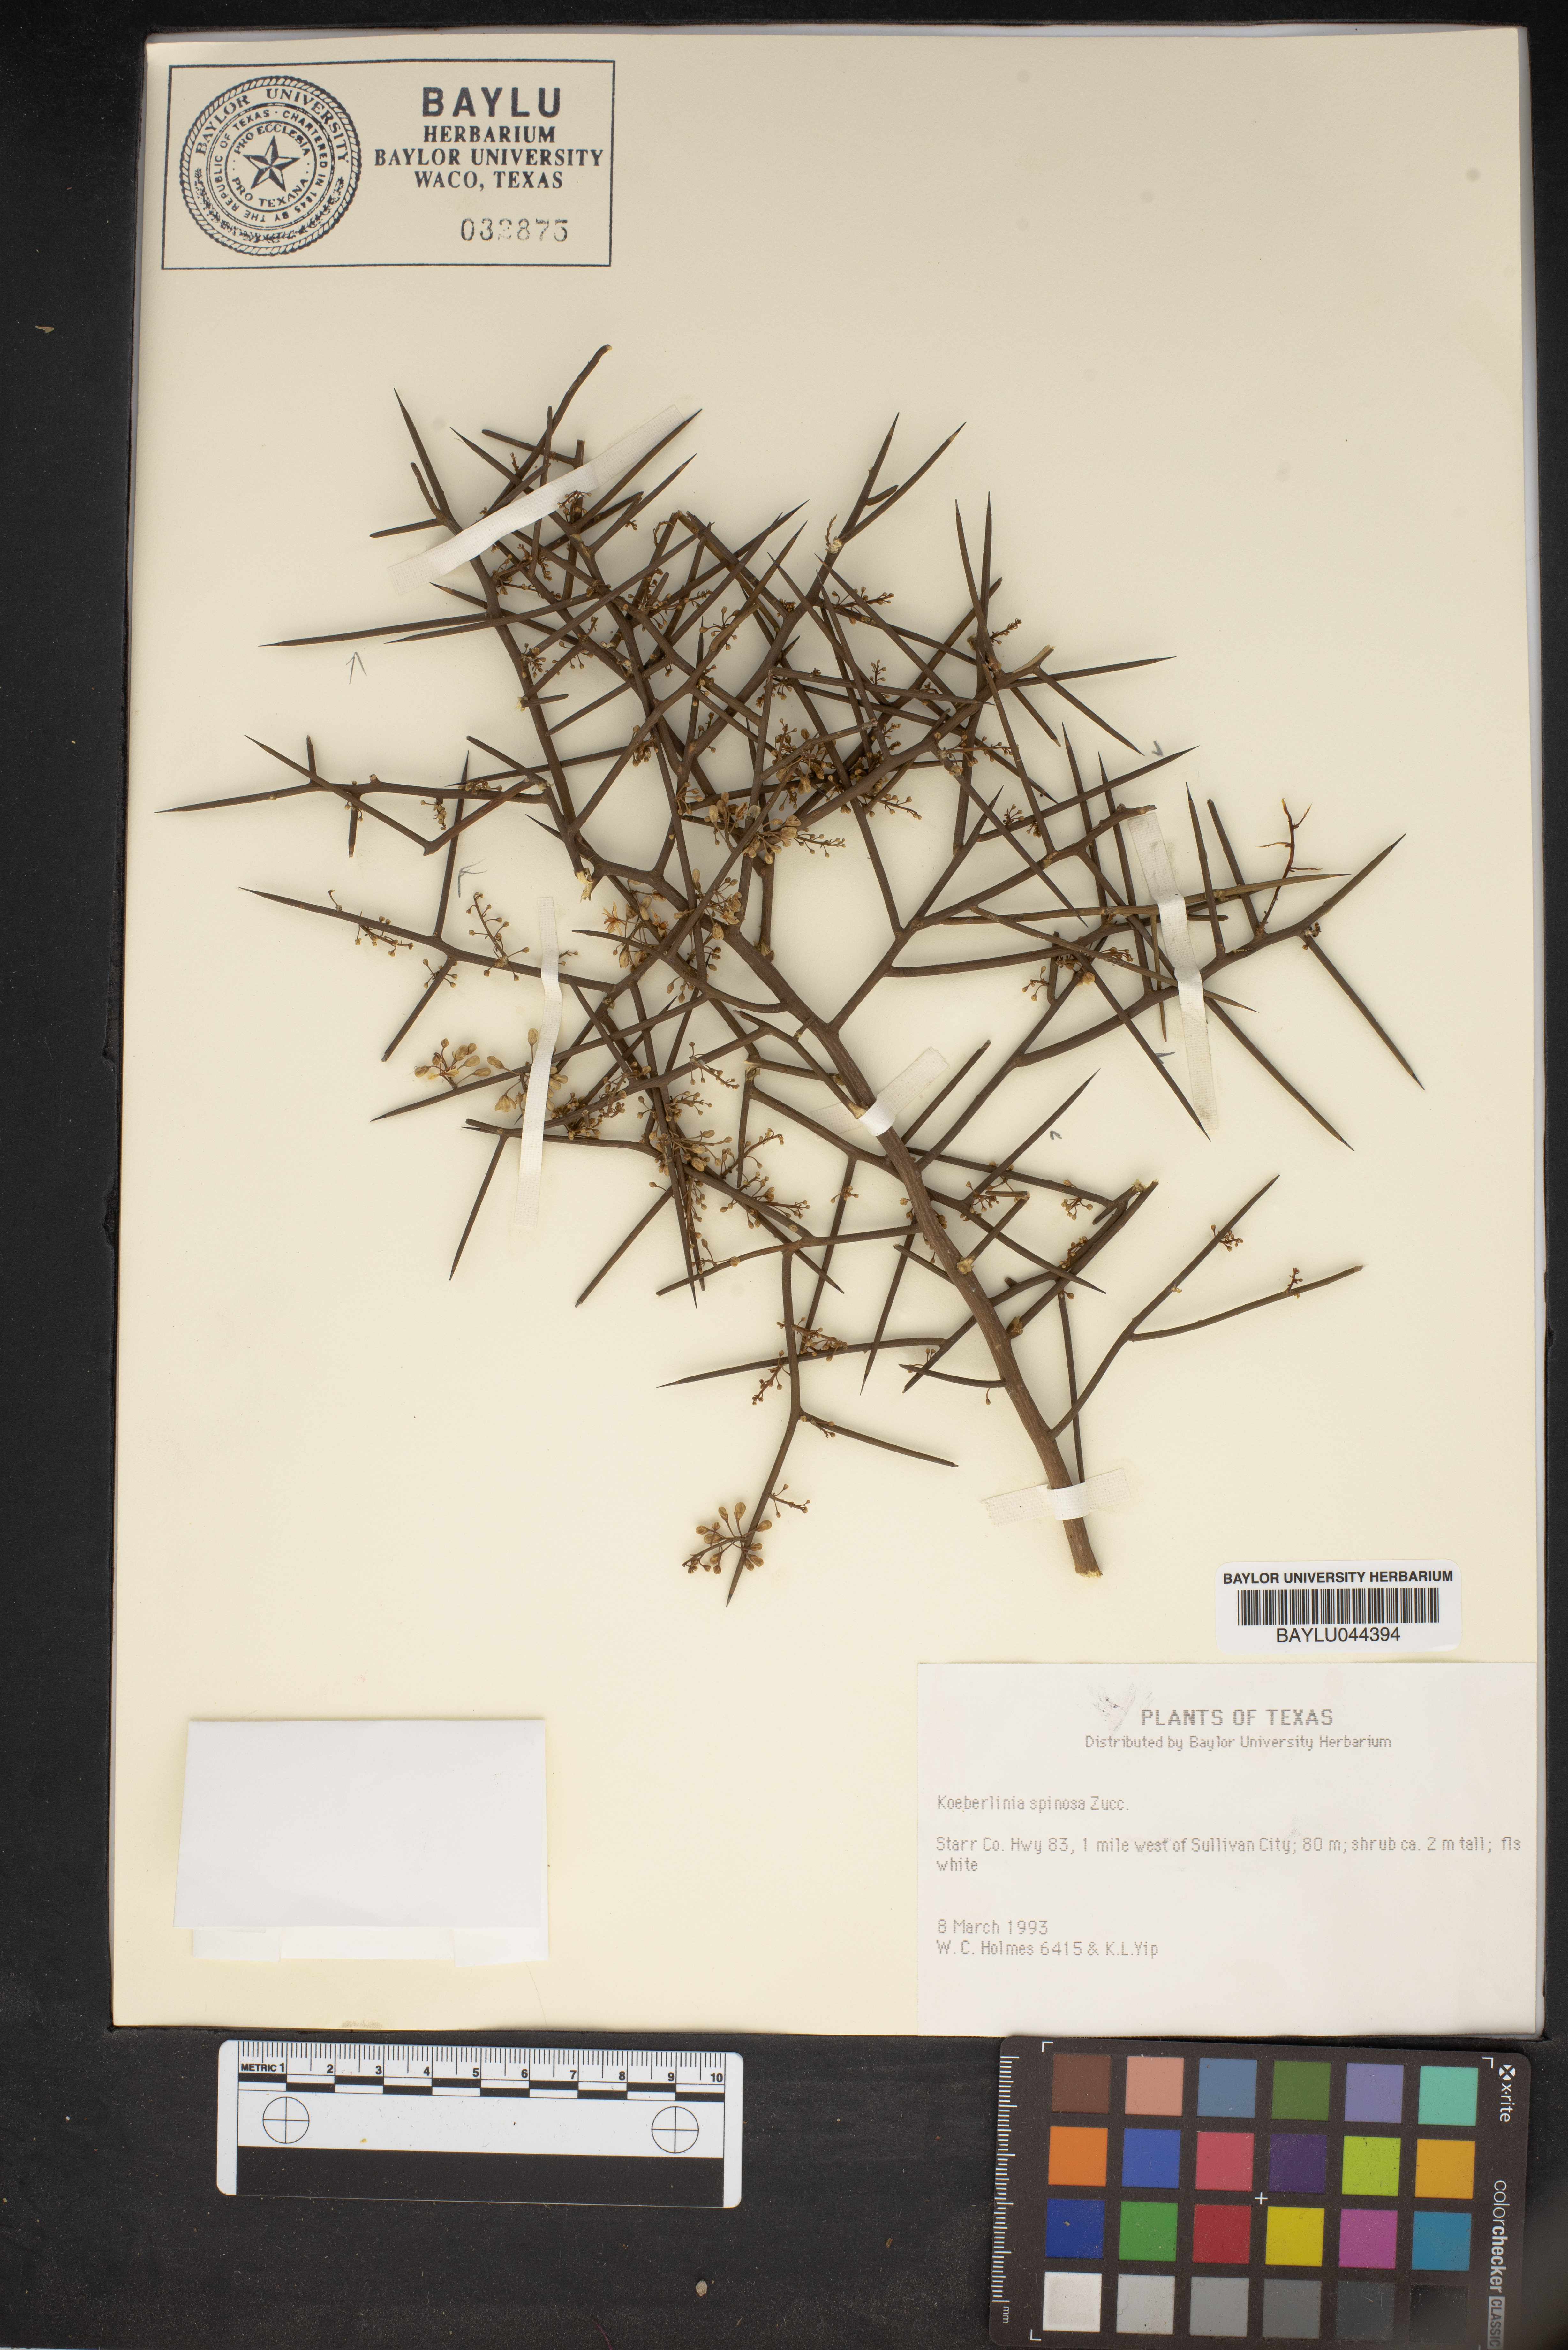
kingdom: Plantae
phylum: Tracheophyta
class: Magnoliopsida
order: Brassicales
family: Koeberliniaceae
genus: Koeberlinia
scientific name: Koeberlinia spinosa
